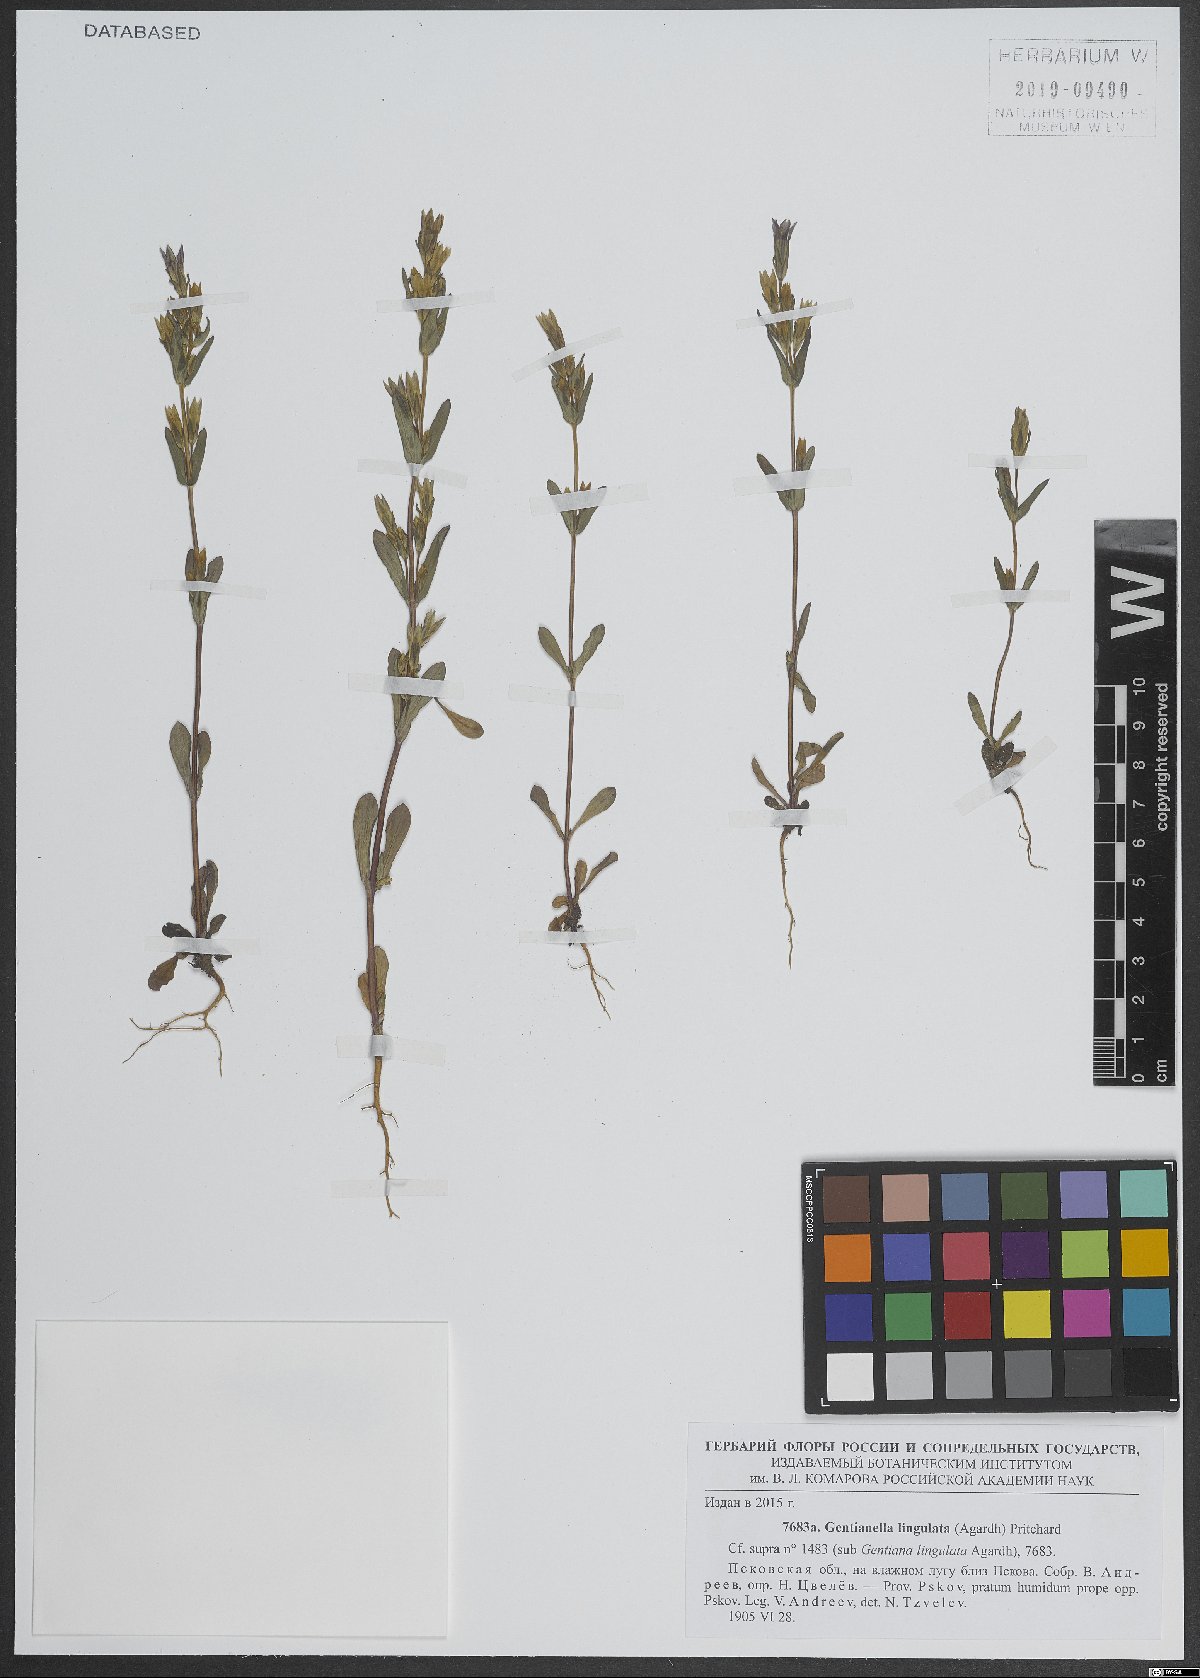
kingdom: Plantae
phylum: Tracheophyta
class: Magnoliopsida
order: Gentianales
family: Gentianaceae
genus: Gentianella
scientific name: Gentianella amarella
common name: Autumn gentian
